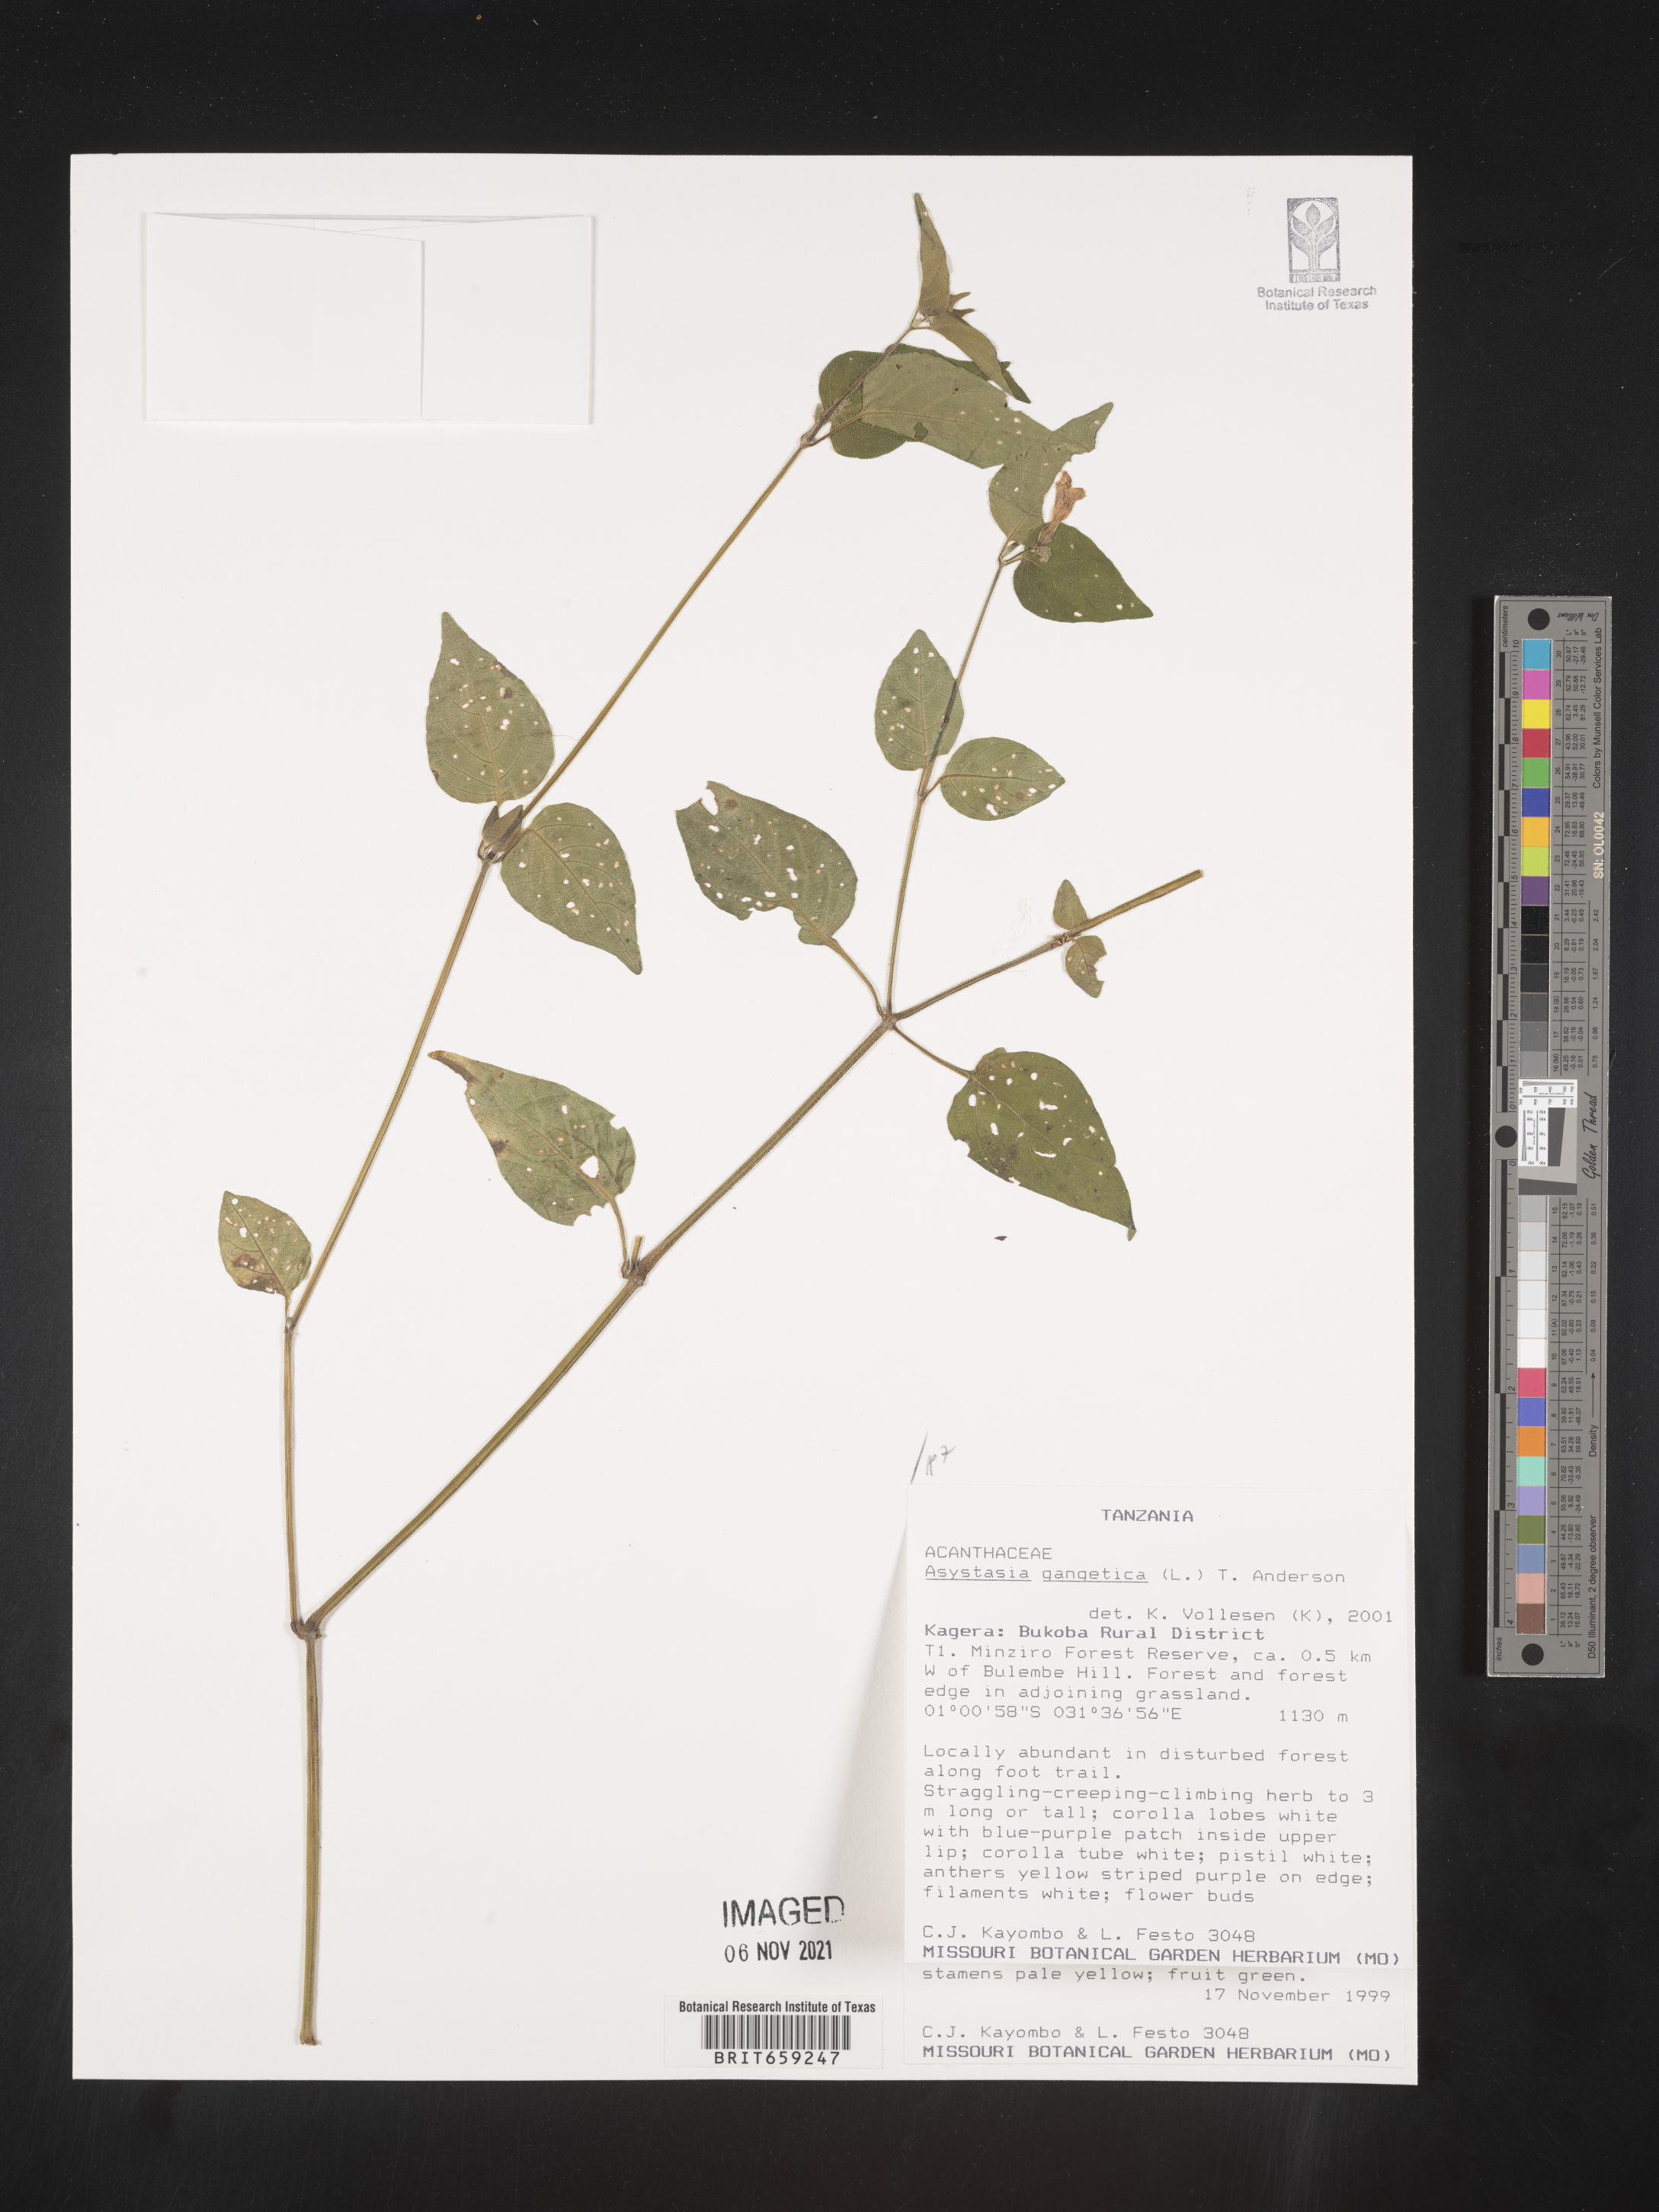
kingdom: Plantae
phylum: Tracheophyta
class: Magnoliopsida
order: Lamiales
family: Acanthaceae
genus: Asystasia
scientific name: Asystasia gangetica
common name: Chinese violet
